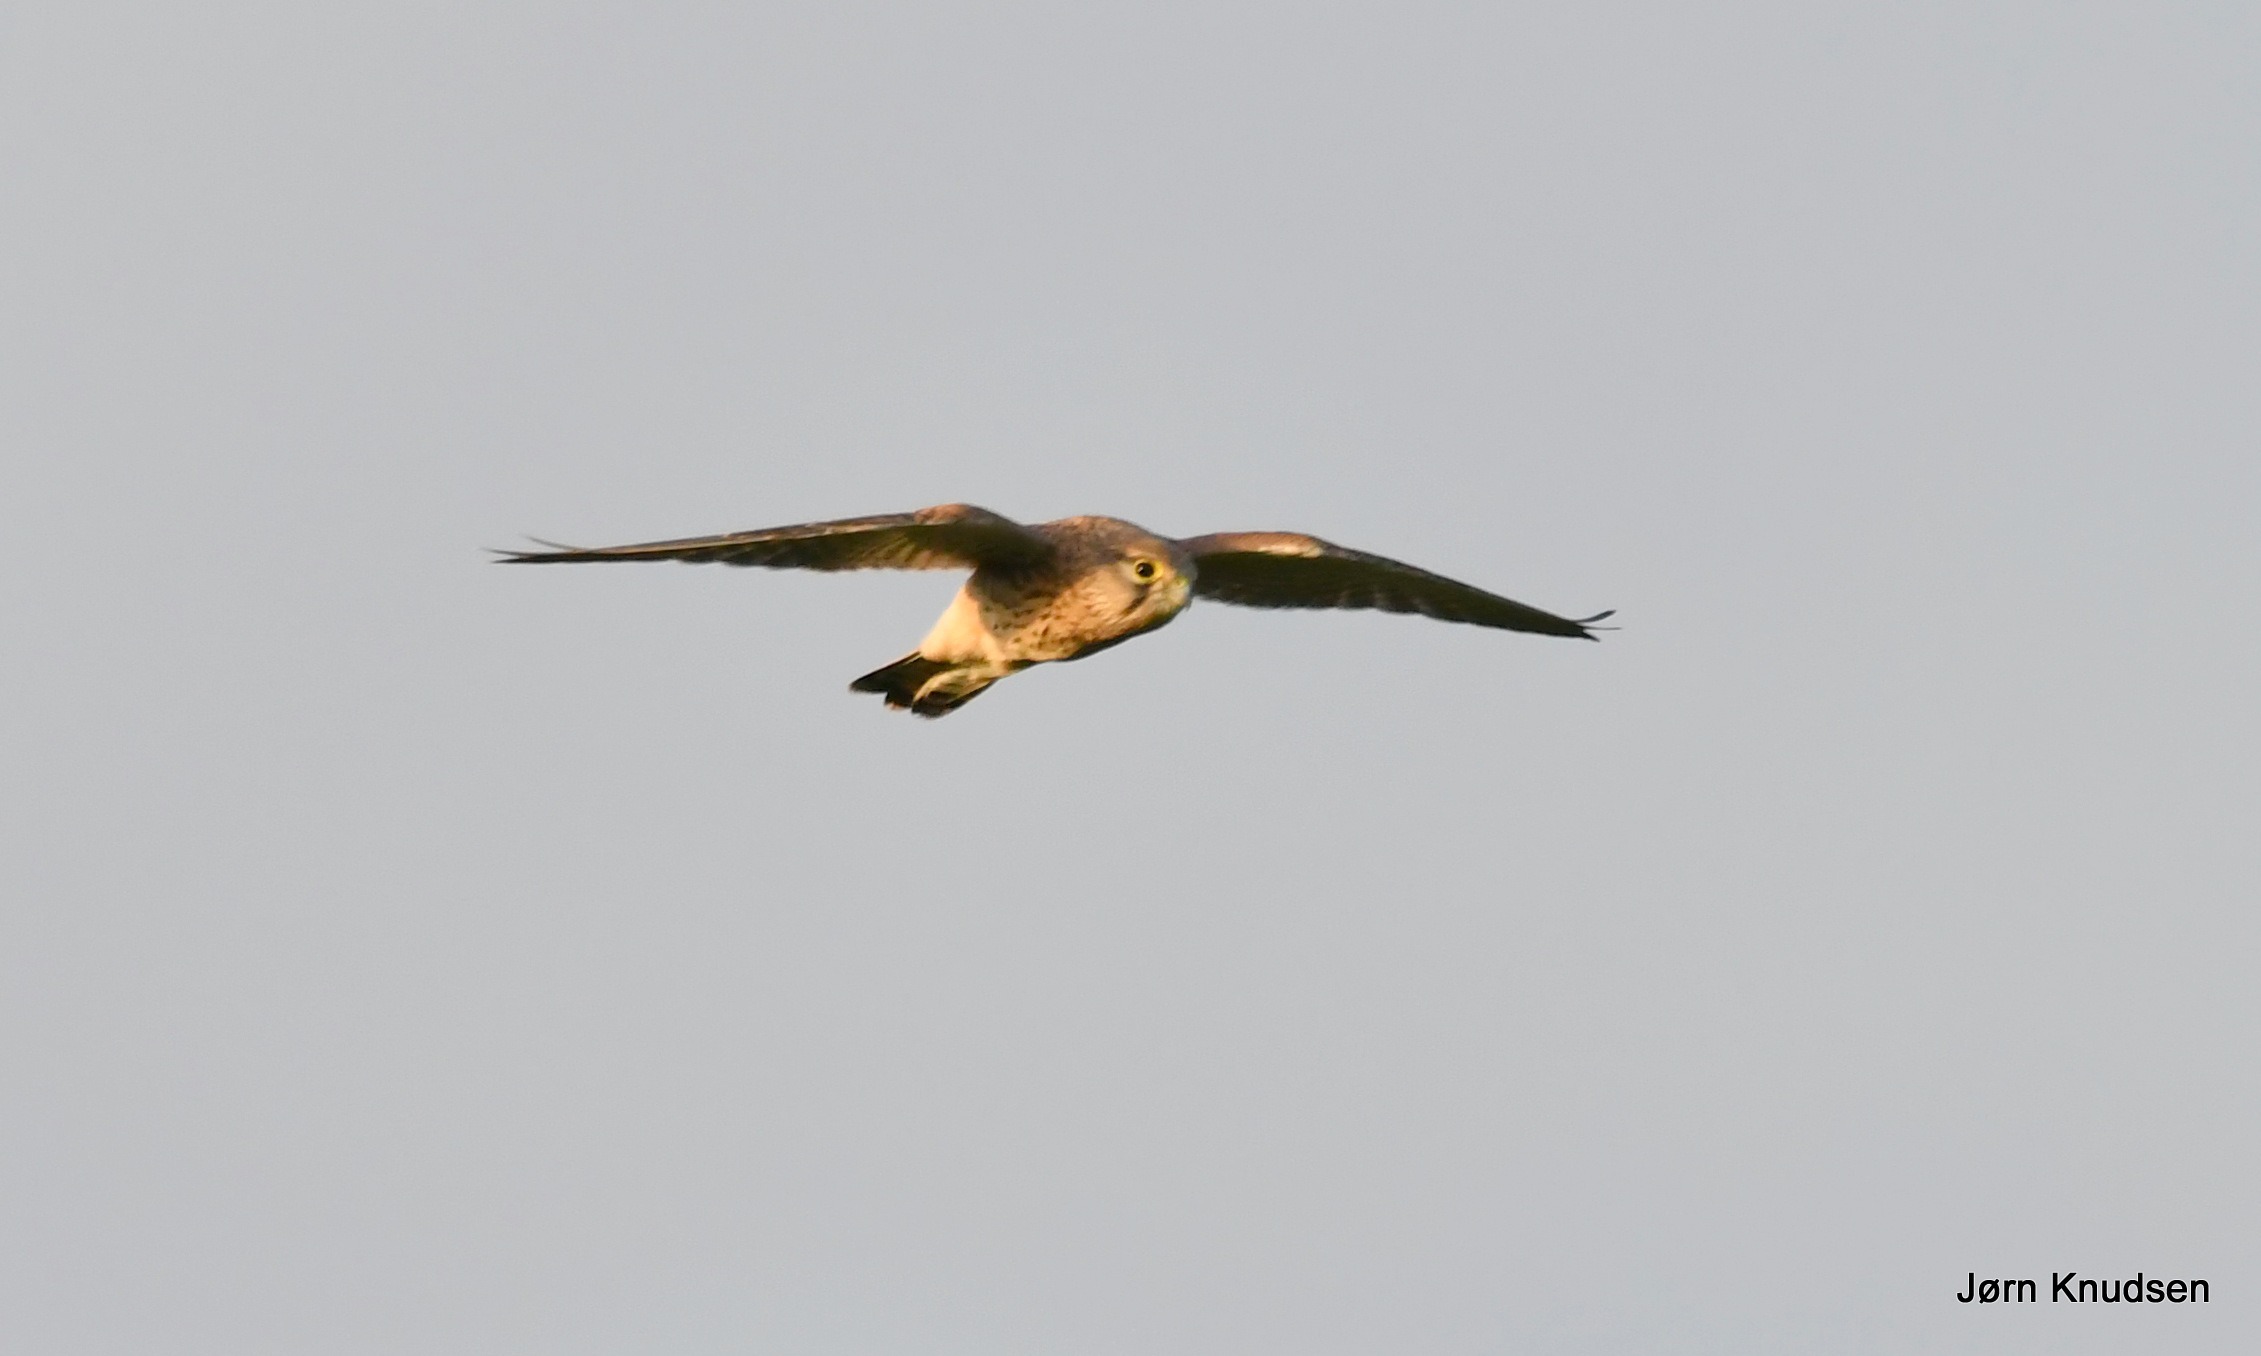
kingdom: Animalia
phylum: Chordata
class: Aves
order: Falconiformes
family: Falconidae
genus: Falco
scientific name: Falco tinnunculus
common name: Tårnfalk
